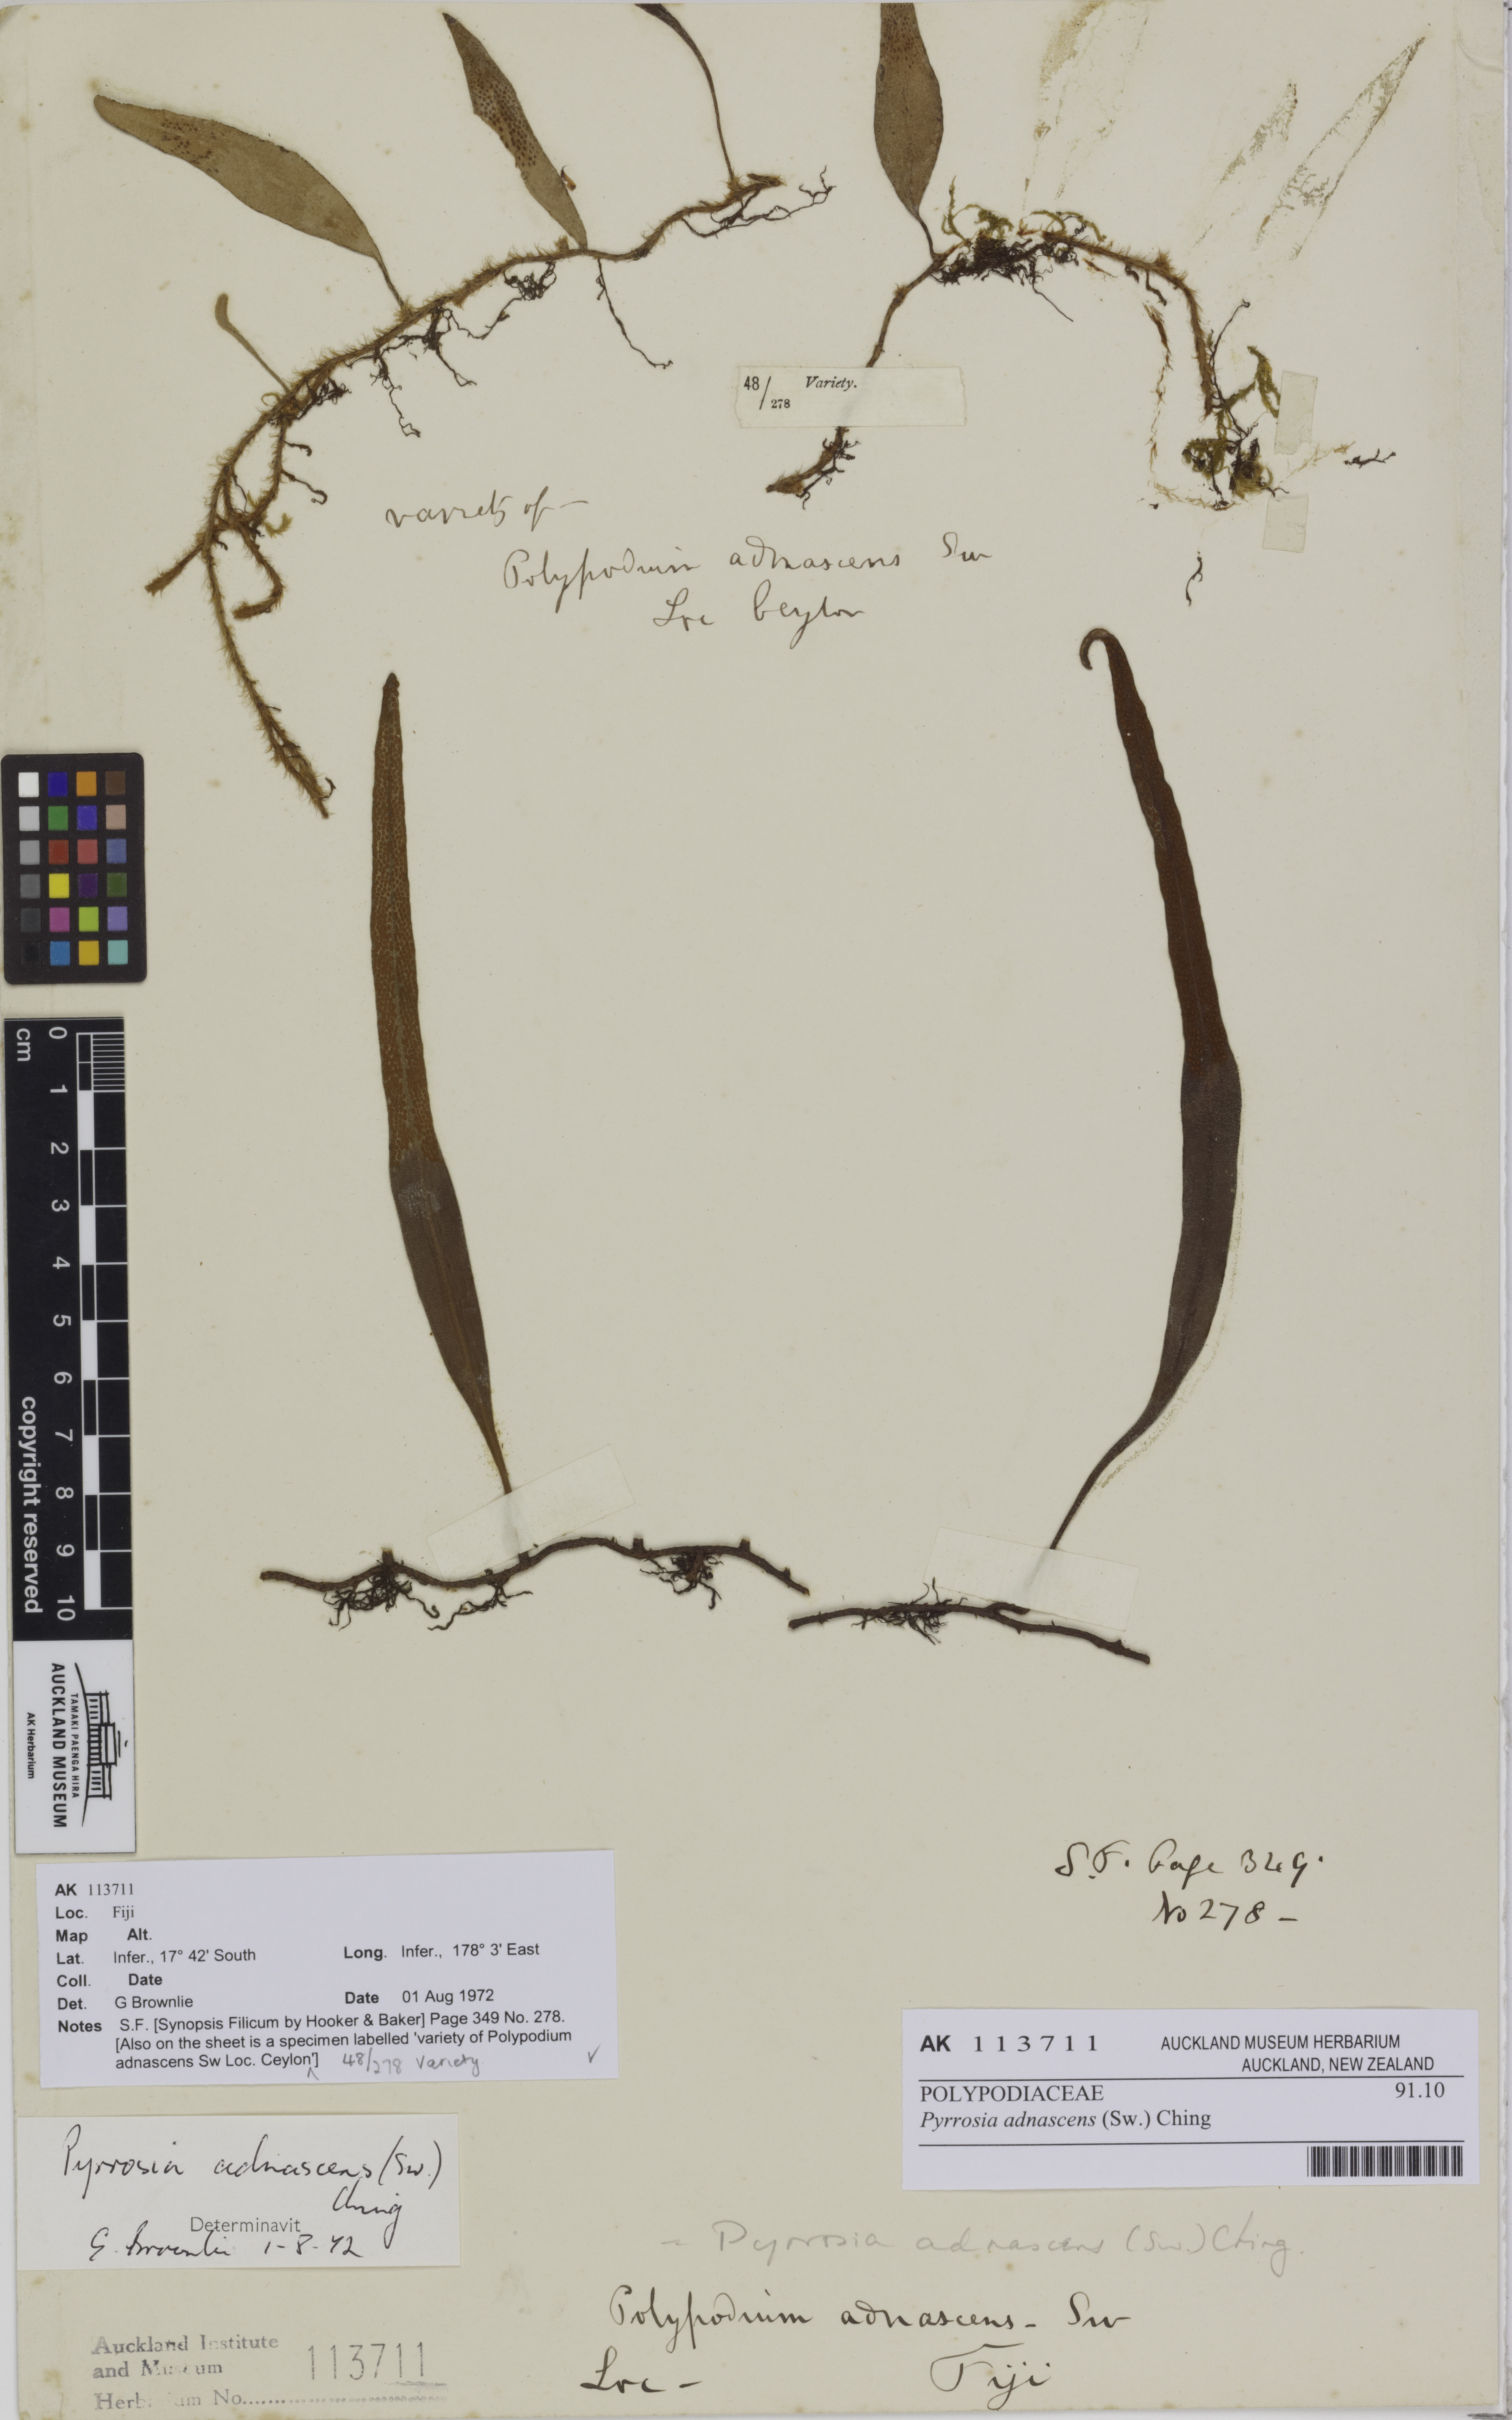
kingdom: Plantae
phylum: Tracheophyta
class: Polypodiopsida
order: Polypodiales
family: Polypodiaceae
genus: Pyrrosia
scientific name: Pyrrosia adnascens
